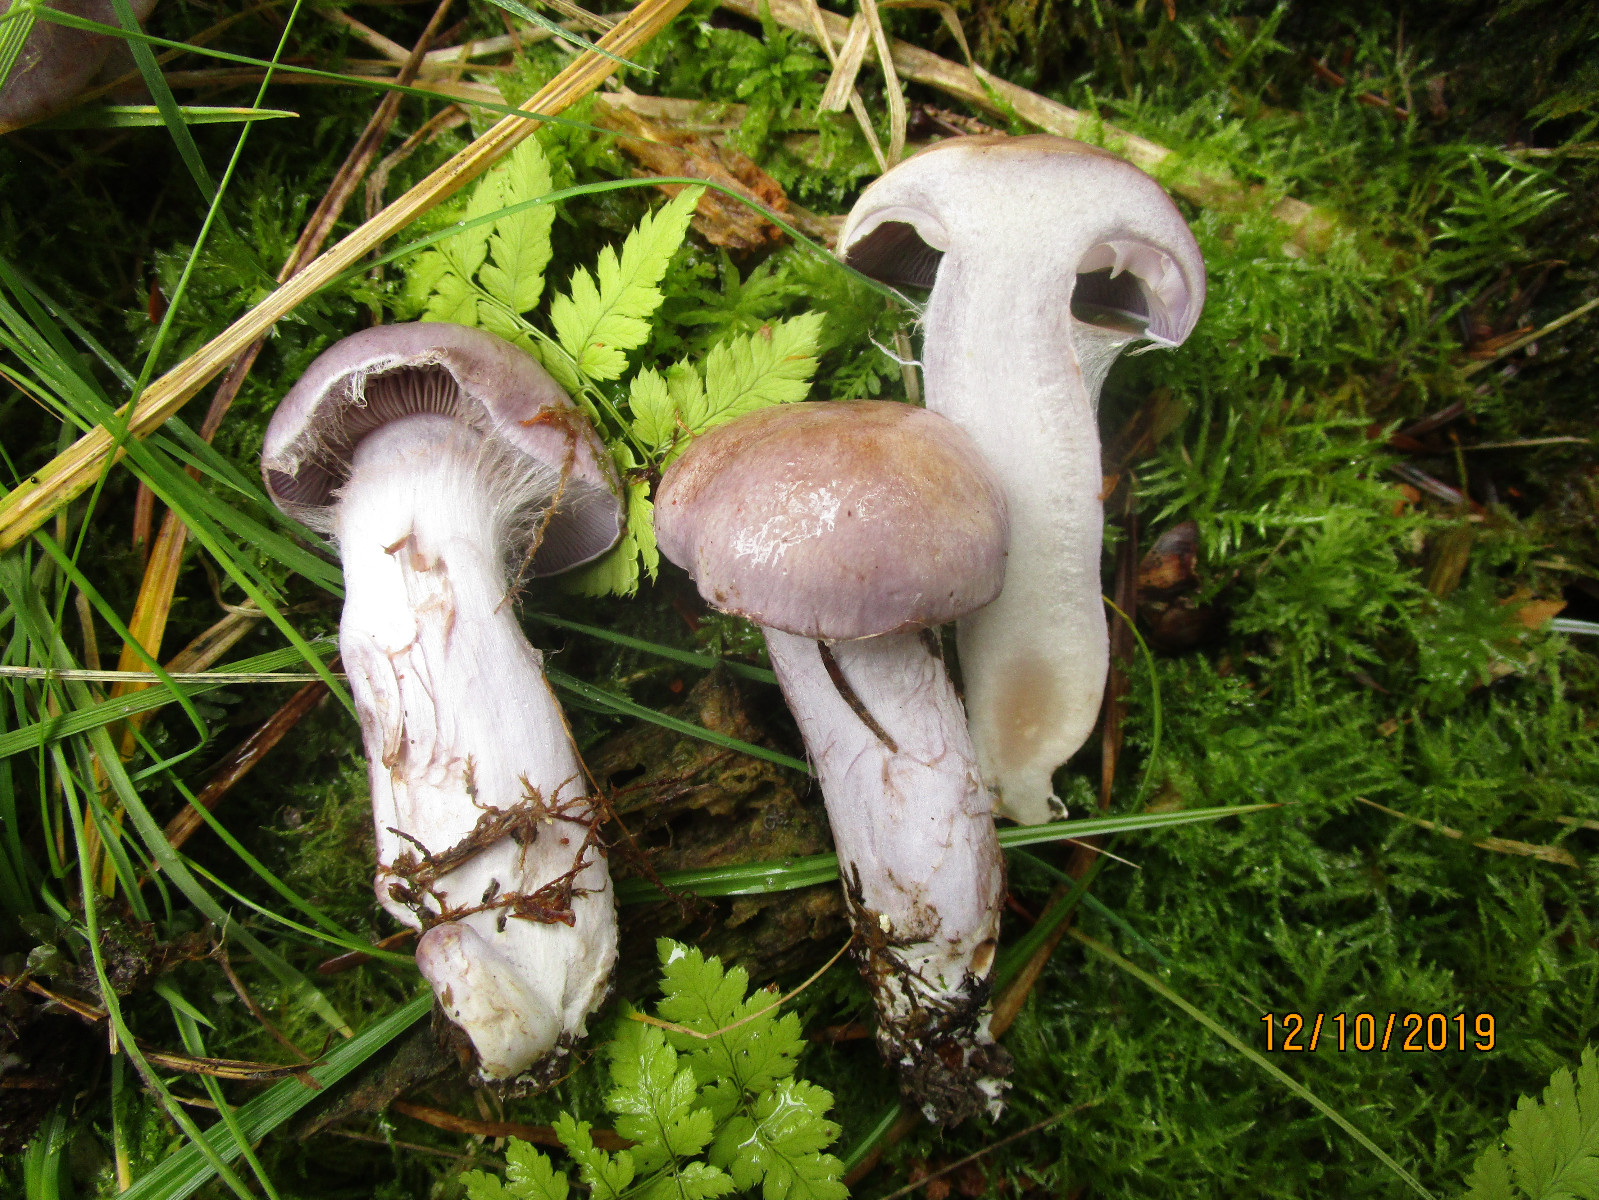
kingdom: Fungi
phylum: Basidiomycota
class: Agaricomycetes
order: Agaricales
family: Cortinariaceae
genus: Cortinarius
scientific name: Cortinarius largus
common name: violetrandet slørhat
